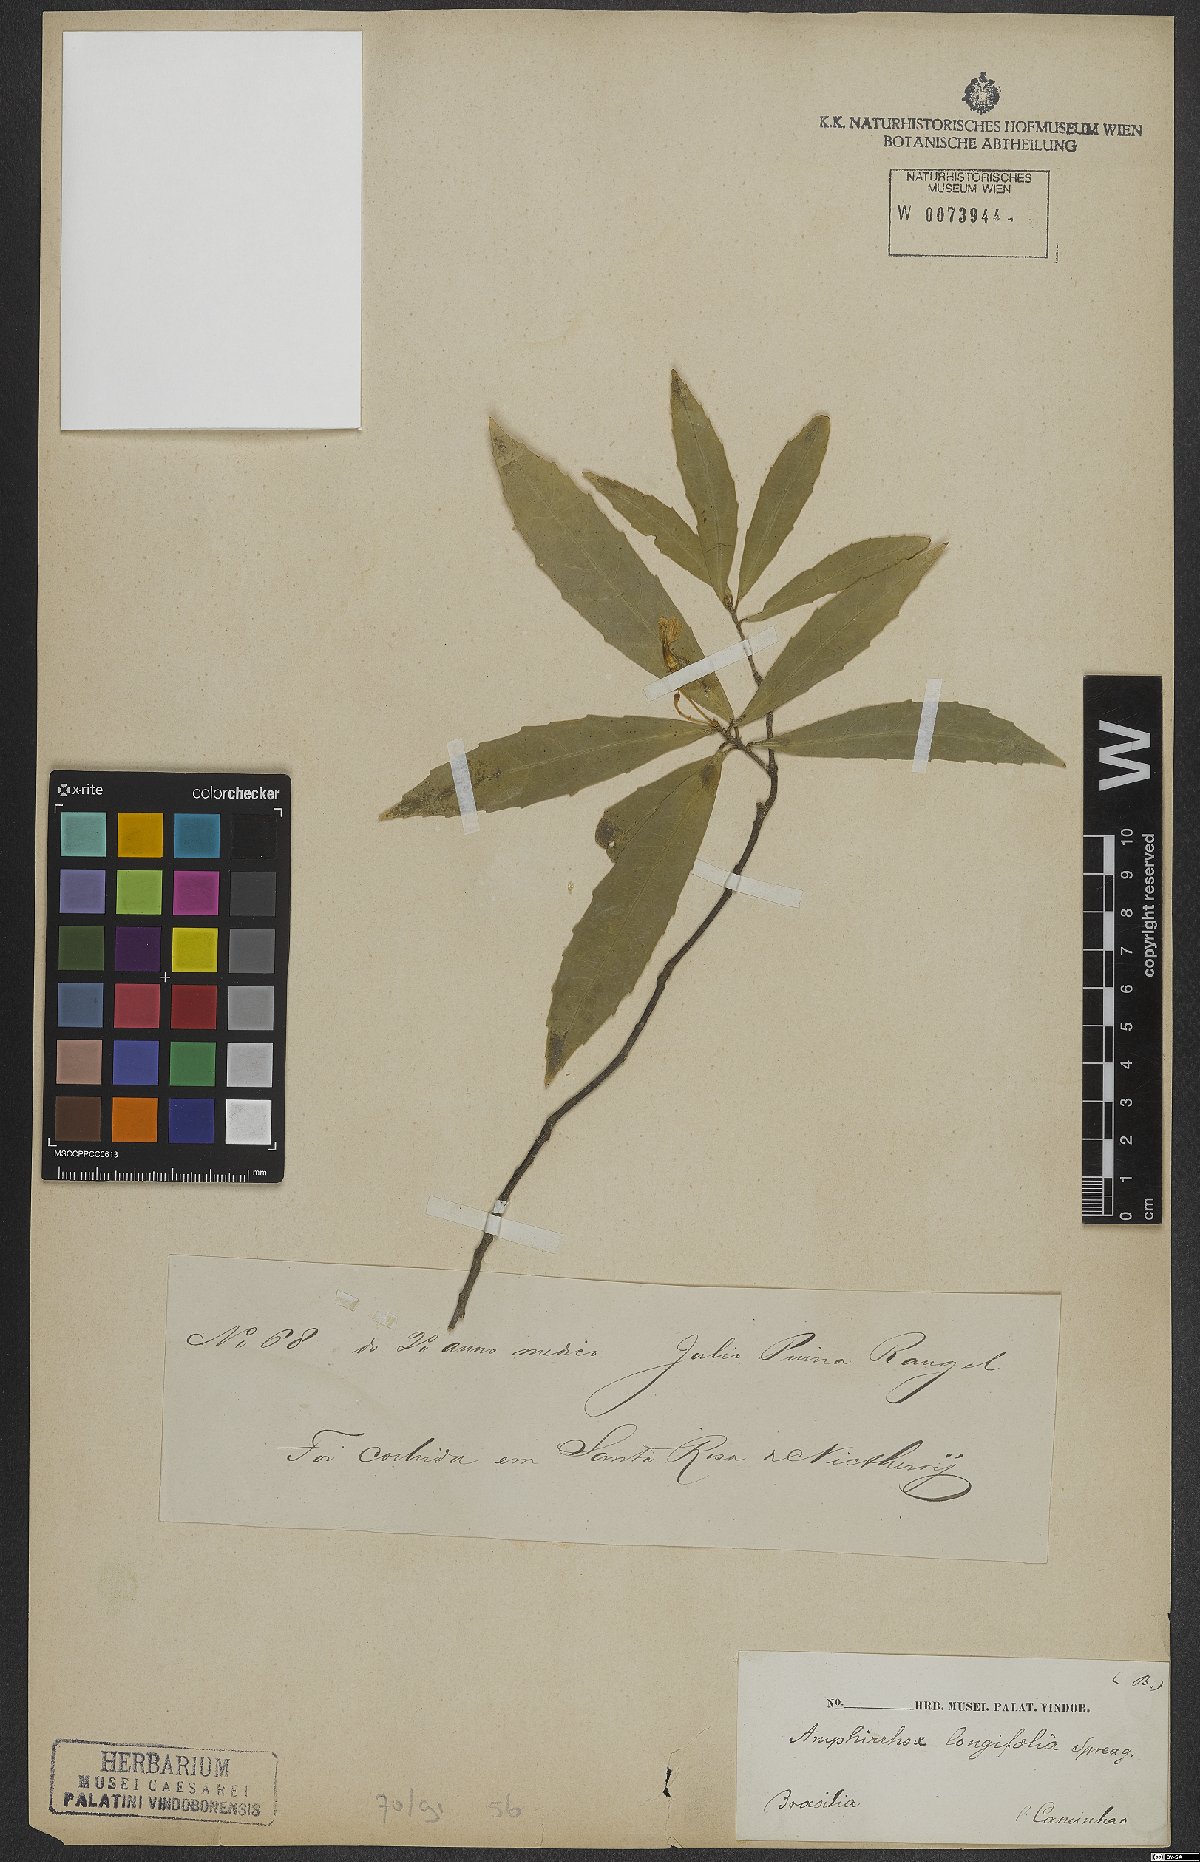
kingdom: Plantae
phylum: Tracheophyta
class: Magnoliopsida
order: Malpighiales
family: Violaceae
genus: Amphirrhox
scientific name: Amphirrhox longifolia
